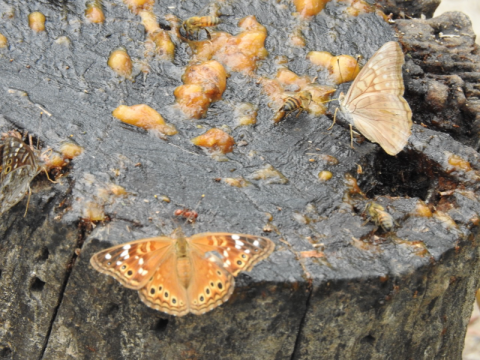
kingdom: Animalia
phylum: Arthropoda
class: Insecta
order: Lepidoptera
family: Nymphalidae
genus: Asterocampa
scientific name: Asterocampa leilia
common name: Empress Leilia
